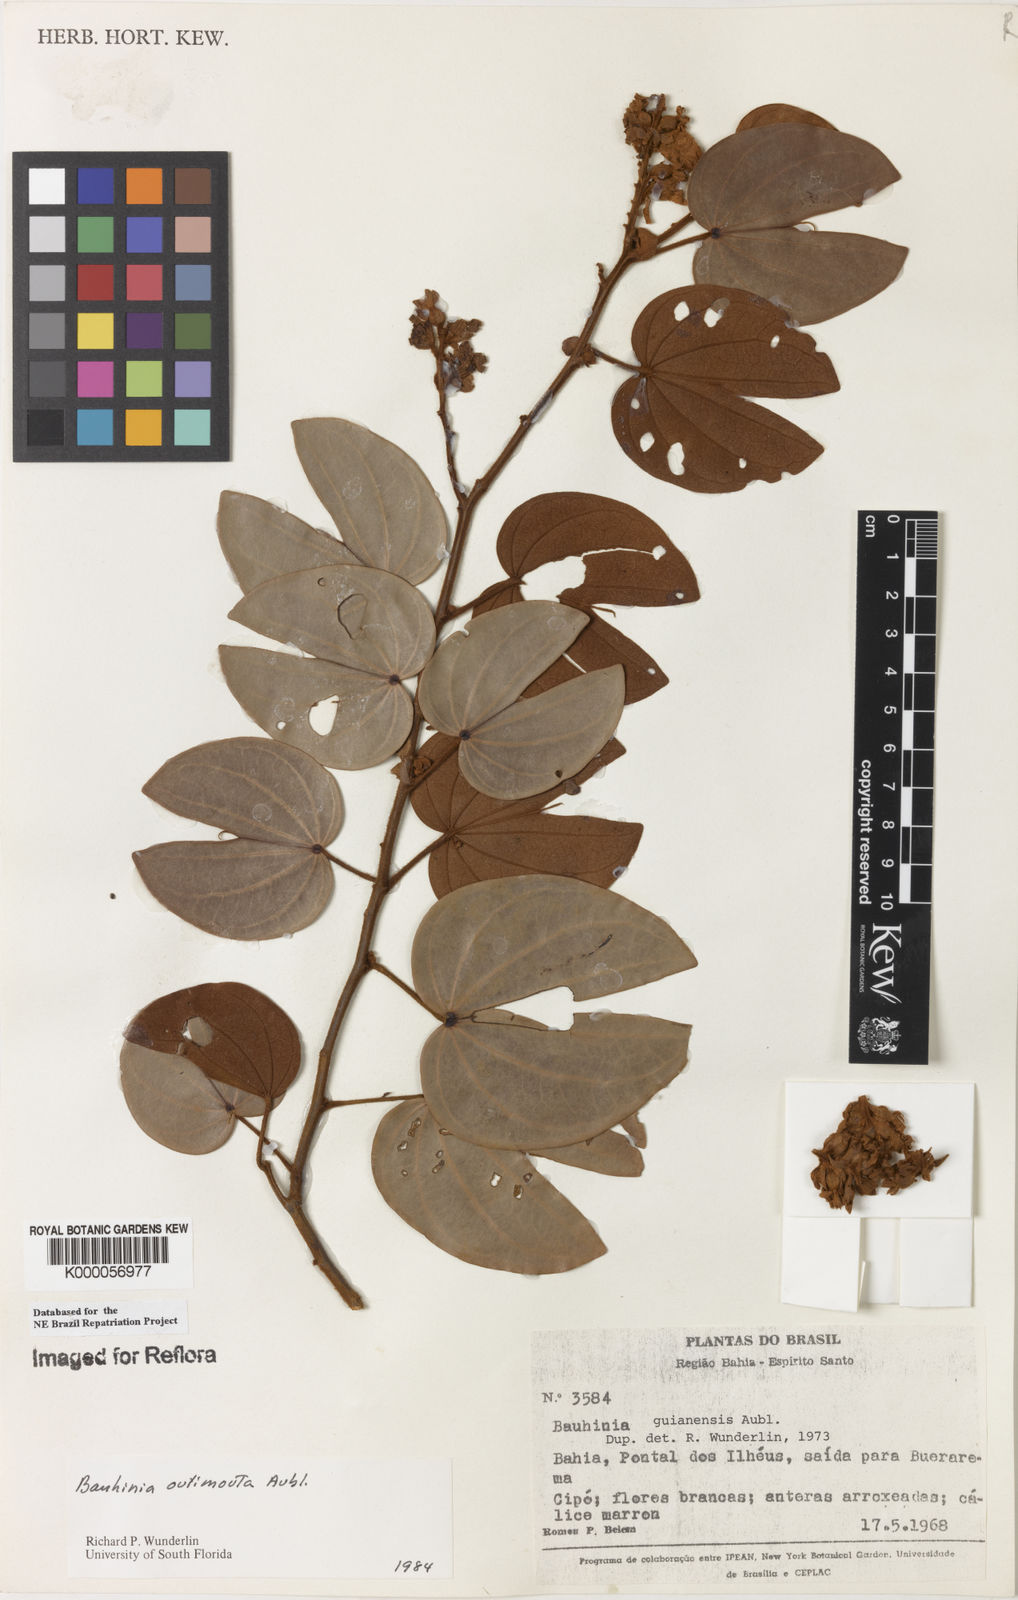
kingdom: Plantae
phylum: Tracheophyta
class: Magnoliopsida
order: Fabales
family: Fabaceae
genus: Schnella
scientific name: Schnella outimouta
